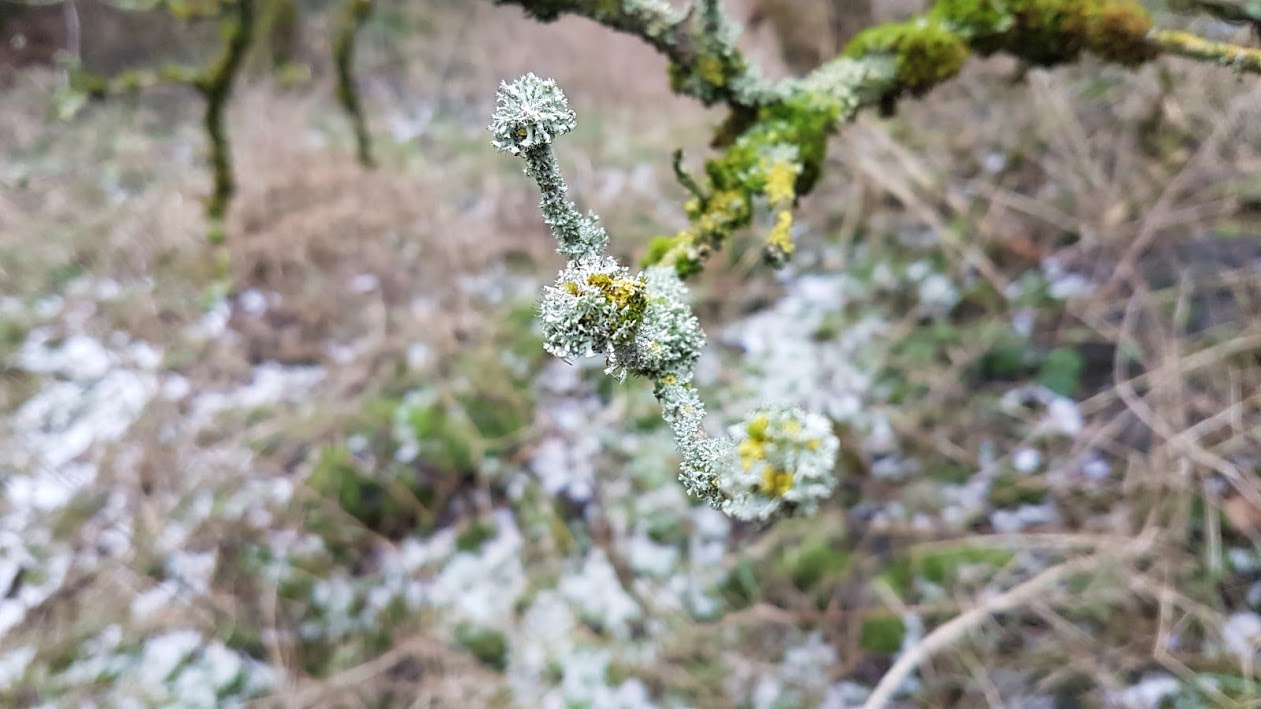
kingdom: Fungi
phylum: Ascomycota
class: Lecanoromycetes
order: Caliciales
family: Physciaceae
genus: Physcia
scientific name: Physcia adscendens
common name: hætte-rosetlav
